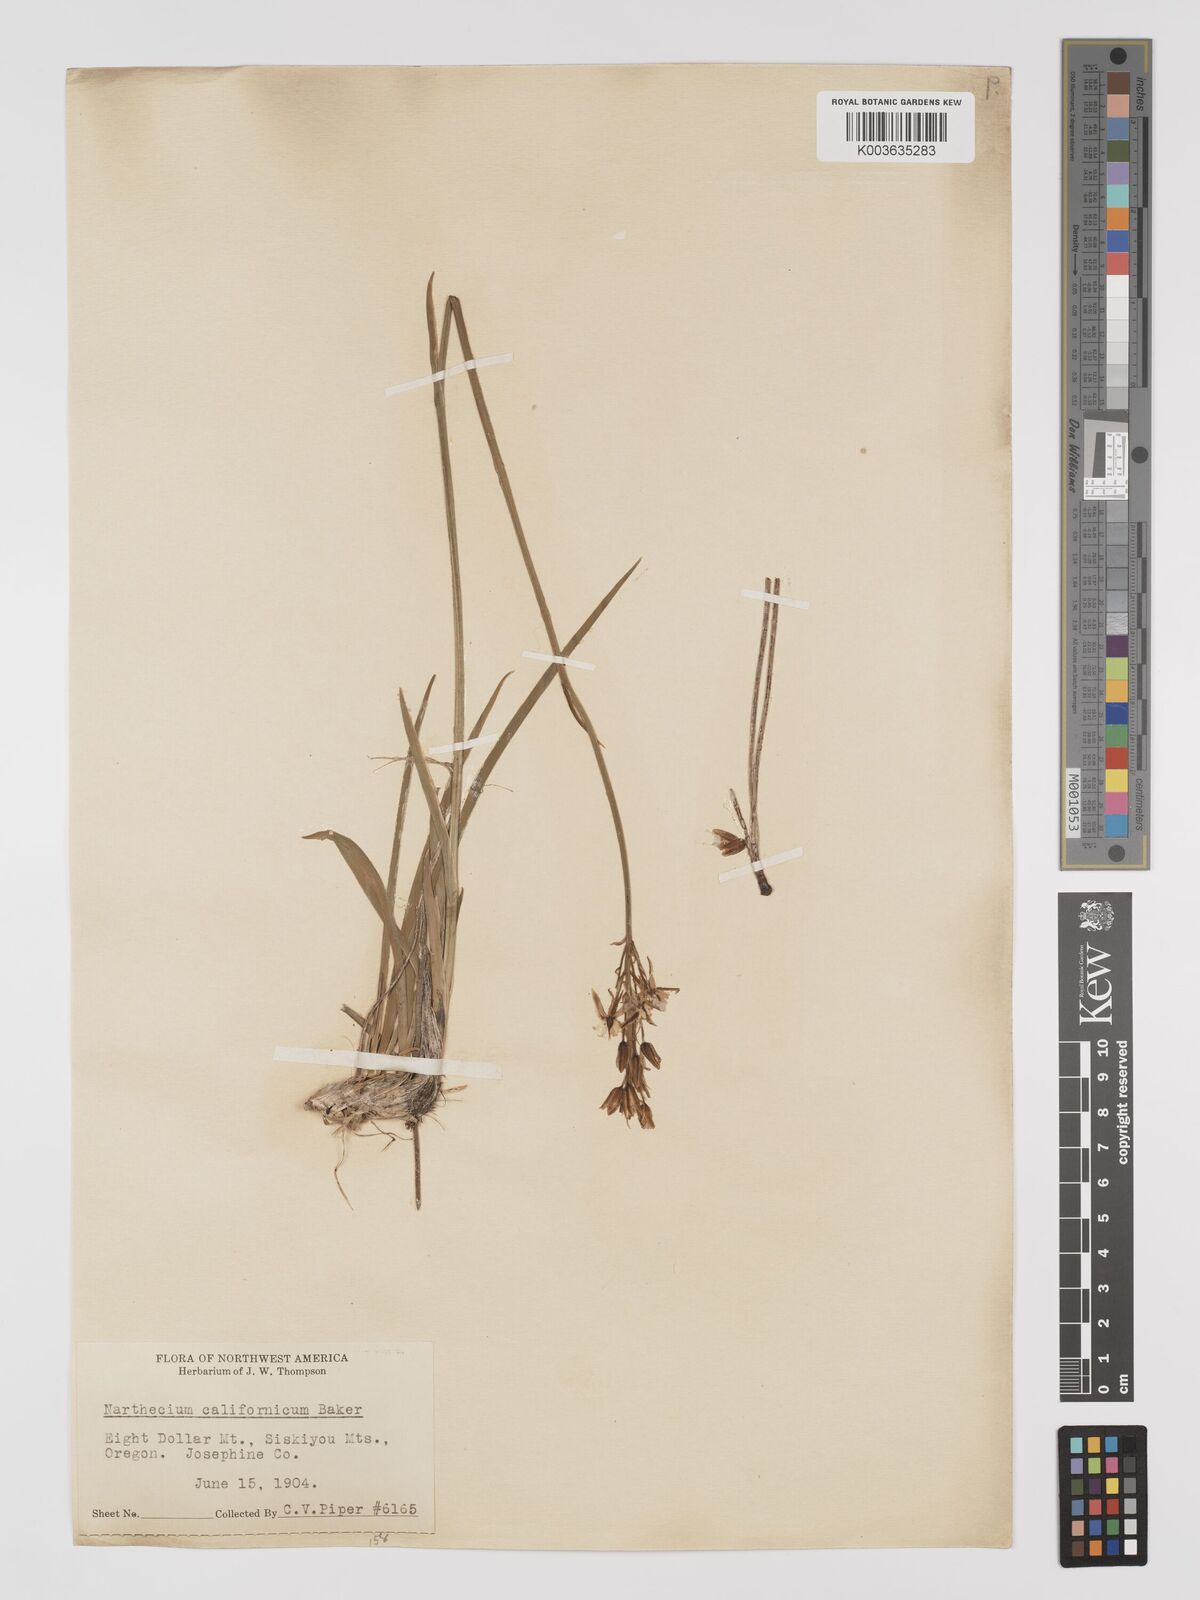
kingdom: Plantae
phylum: Tracheophyta
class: Liliopsida
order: Dioscoreales
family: Nartheciaceae
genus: Narthecium
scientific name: Narthecium californicum
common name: California bog-asphodel
